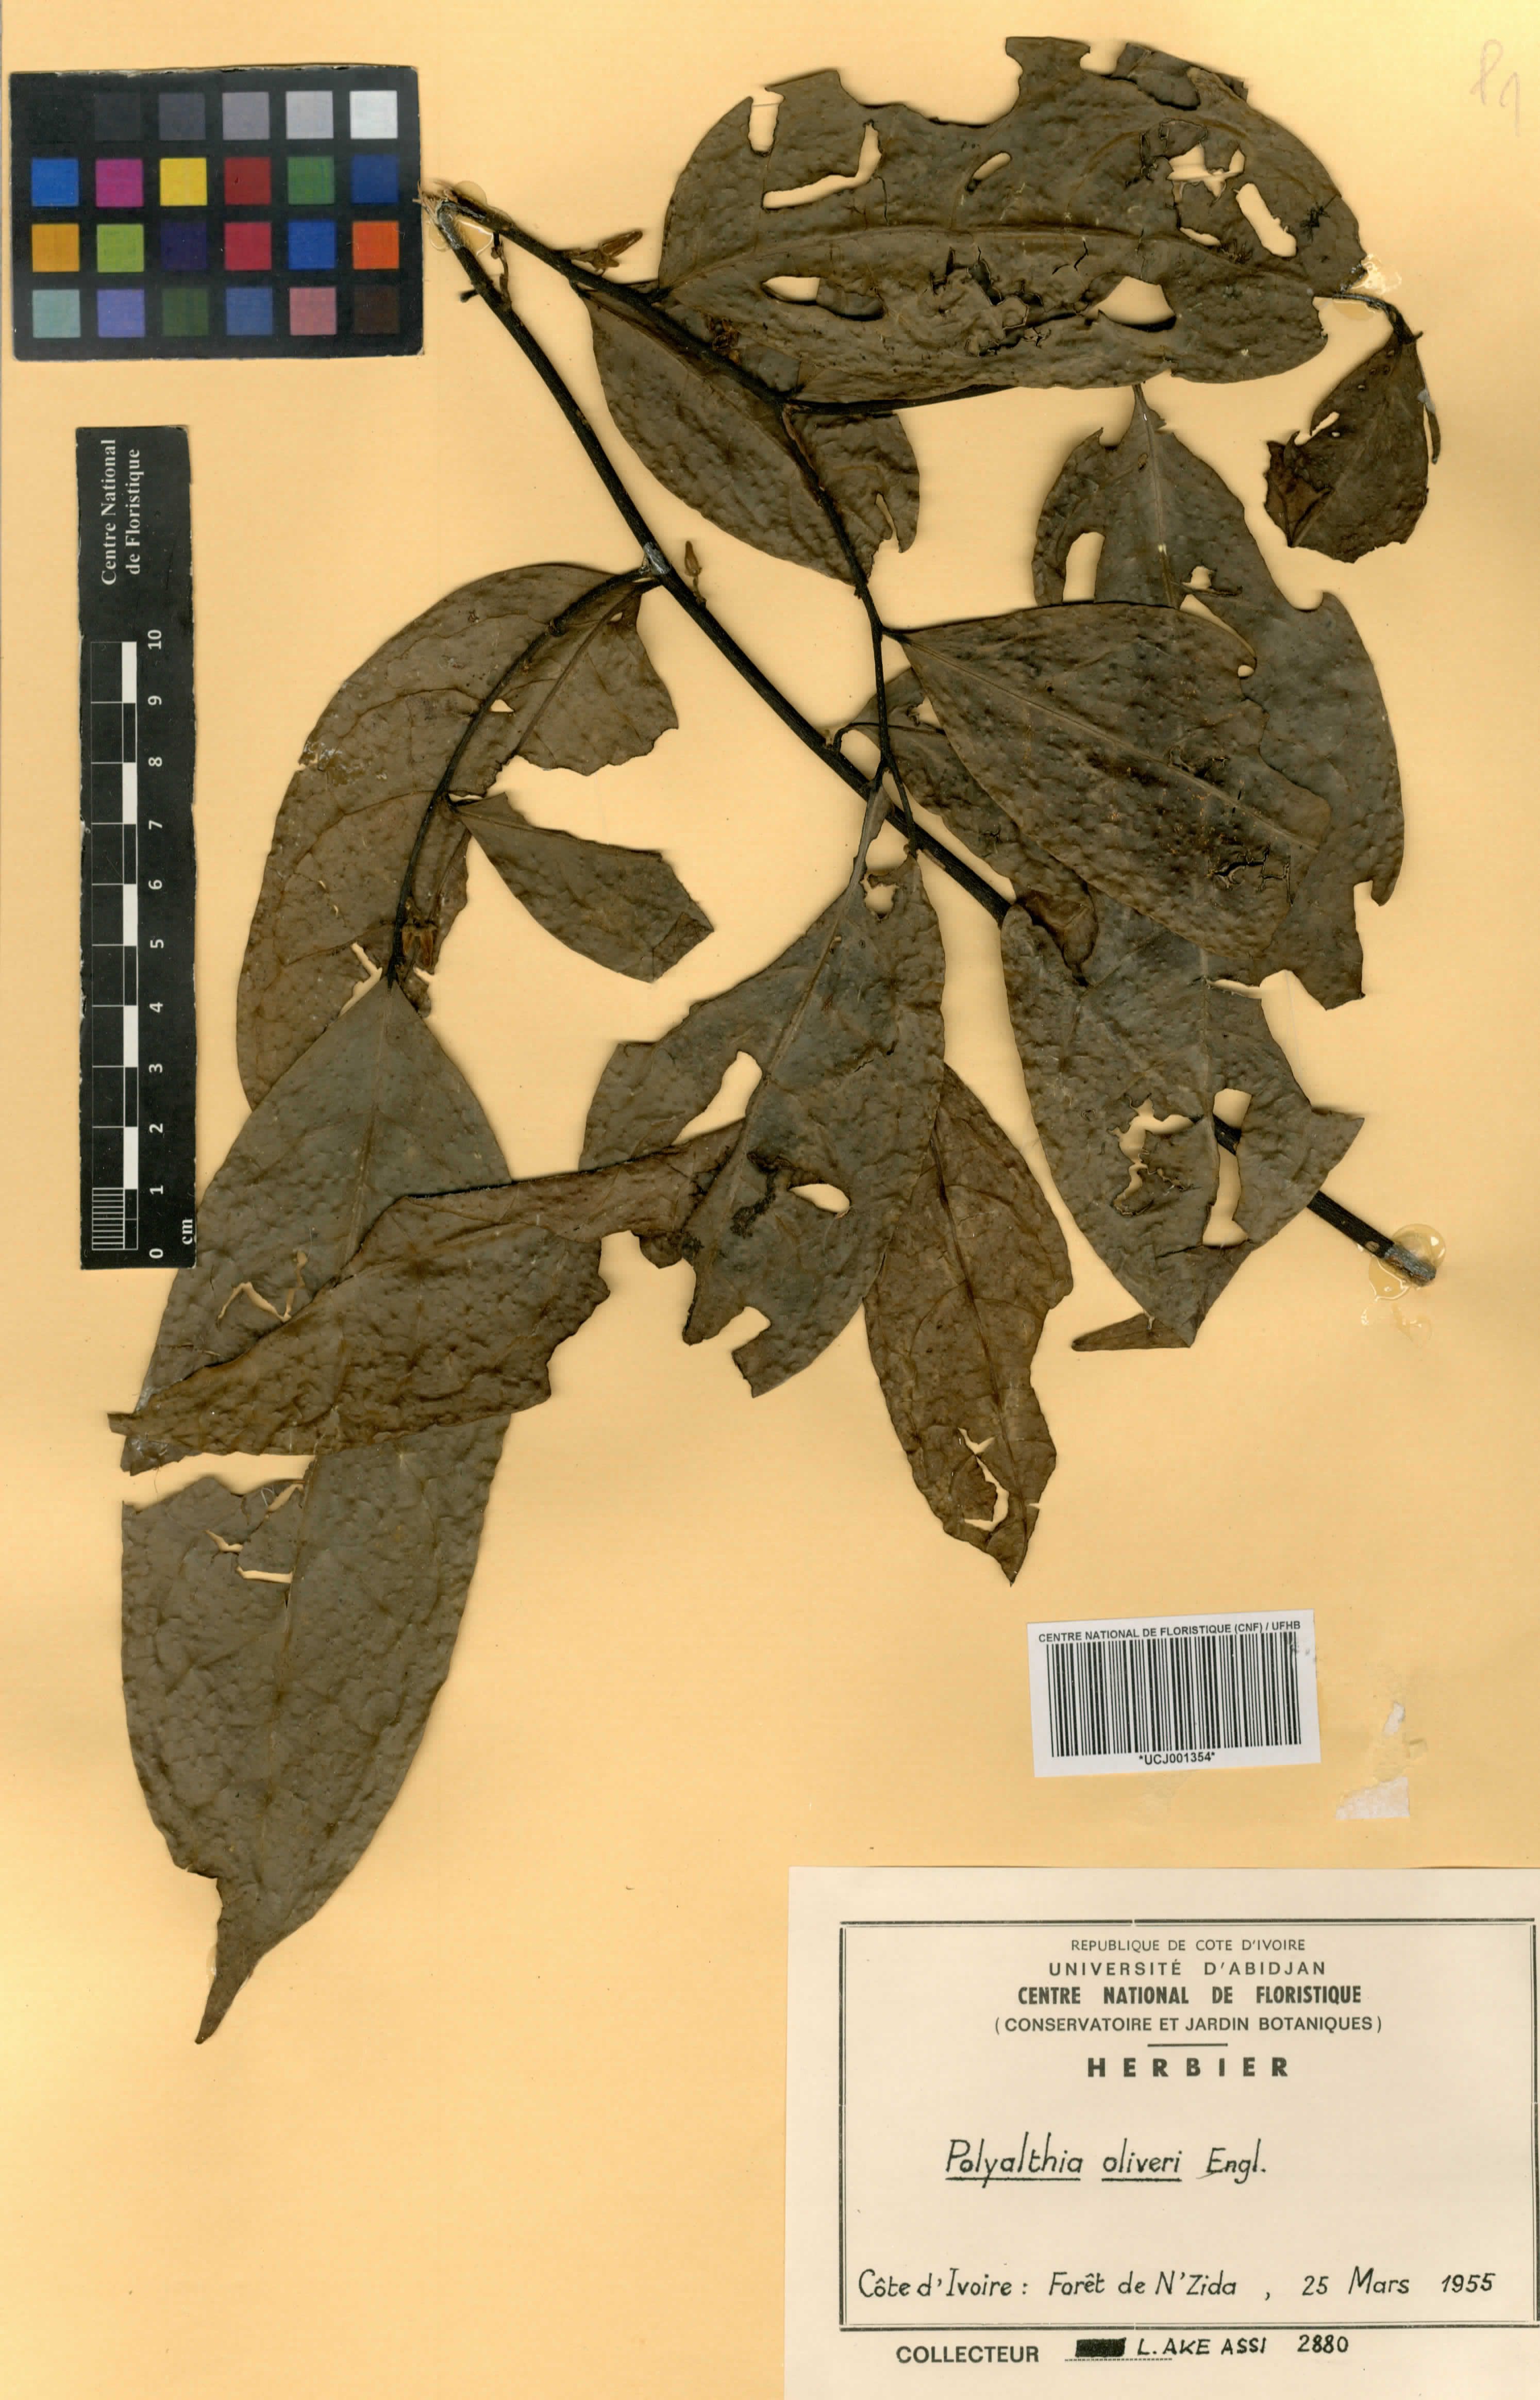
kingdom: Plantae
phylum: Tracheophyta
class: Magnoliopsida
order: Magnoliales
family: Annonaceae
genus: Greenwayodendron
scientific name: Greenwayodendron oliveri
